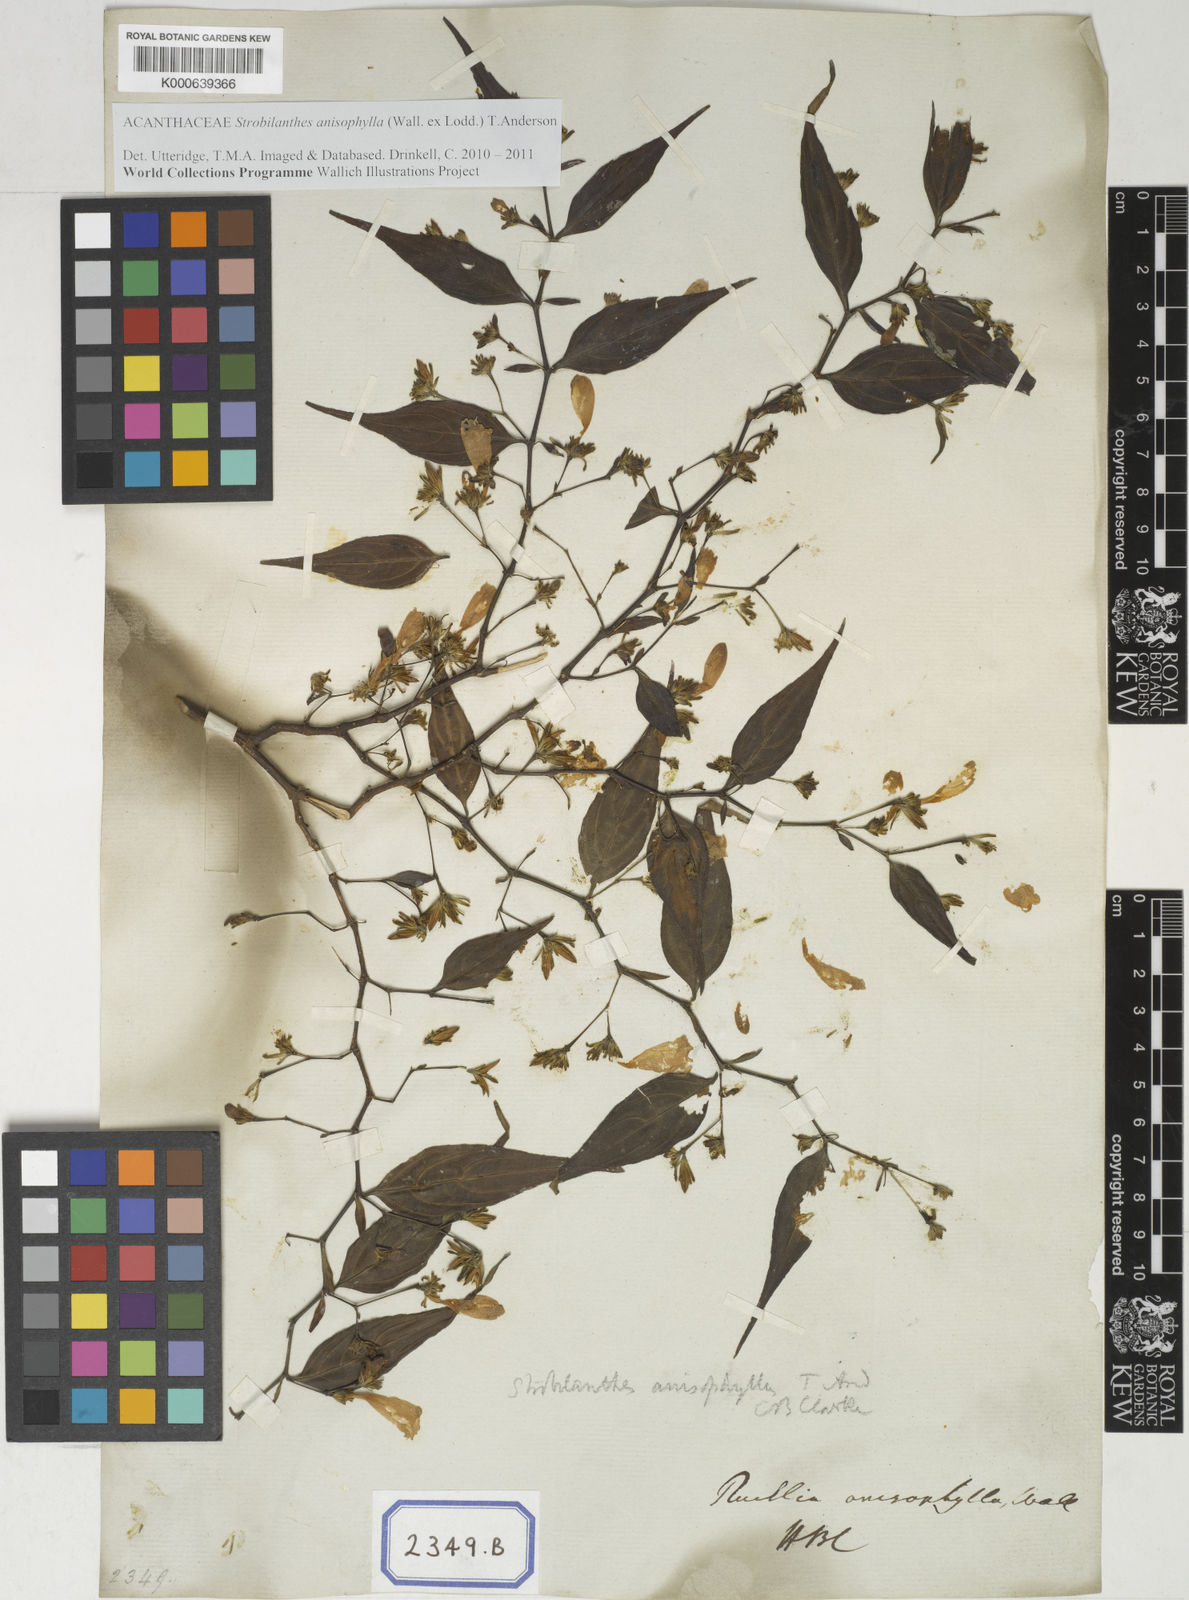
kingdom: Plantae
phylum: Tracheophyta
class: Magnoliopsida
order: Lamiales
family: Acanthaceae
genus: Strobilanthes
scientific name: Strobilanthes anisophylla
